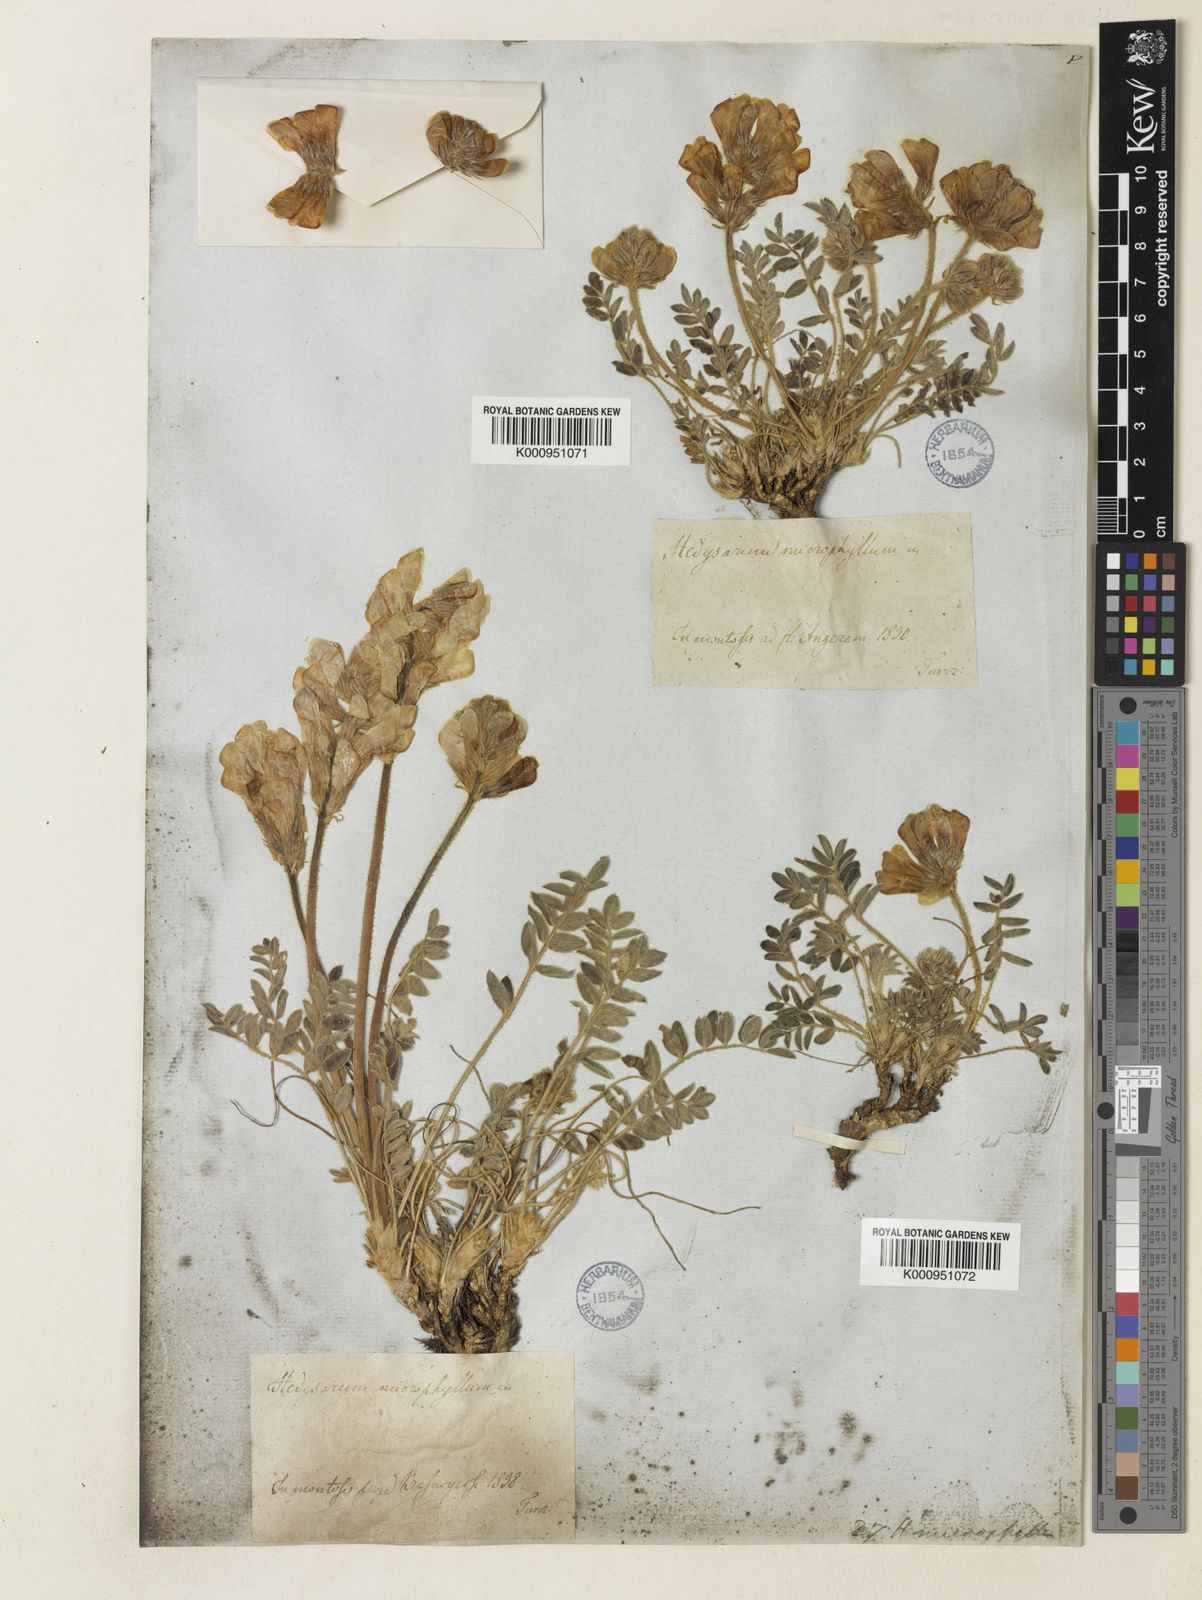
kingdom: Plantae
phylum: Tracheophyta
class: Magnoliopsida
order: Fabales
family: Fabaceae
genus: Hedysarum
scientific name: Hedysarum turczaninovii
